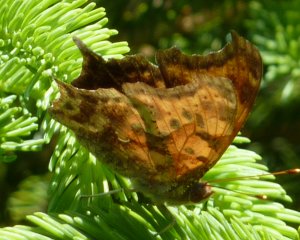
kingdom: Animalia
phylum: Arthropoda
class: Insecta
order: Lepidoptera
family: Nymphalidae
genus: Polygonia
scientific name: Polygonia interrogationis
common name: Question Mark
